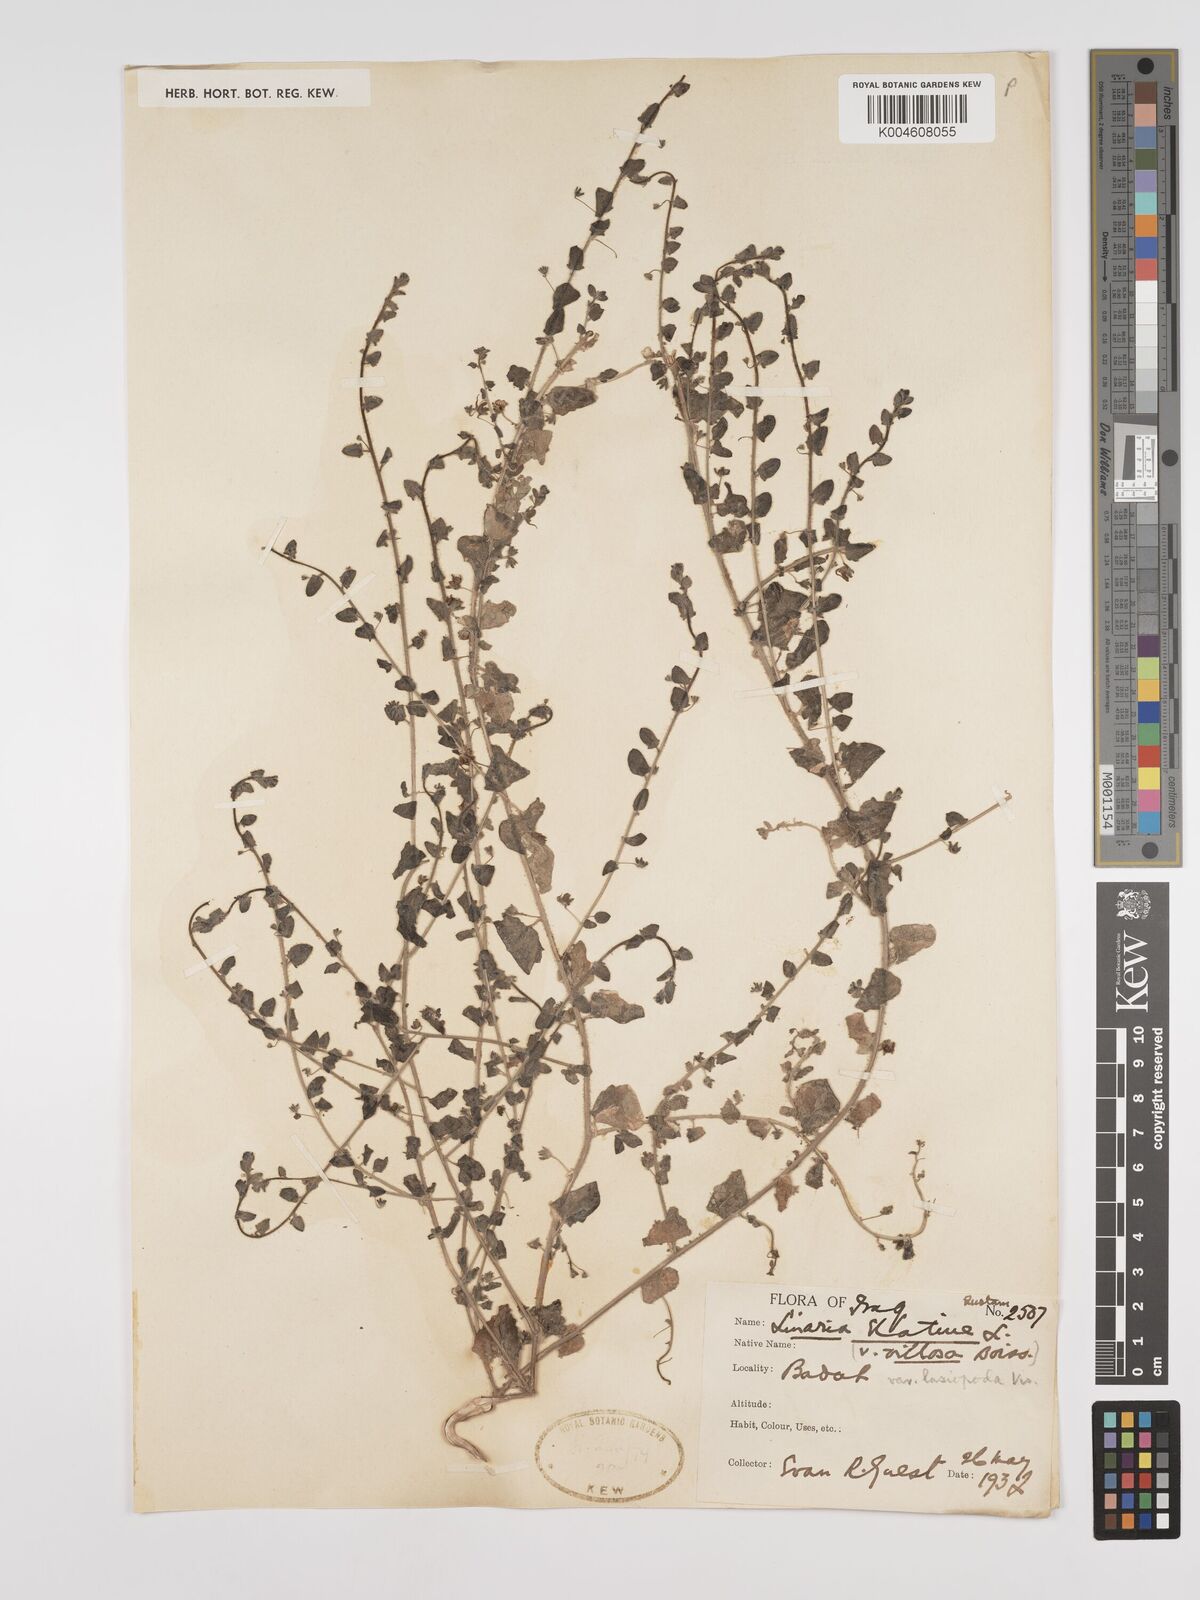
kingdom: Plantae
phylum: Tracheophyta
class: Magnoliopsida
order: Lamiales
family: Plantaginaceae
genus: Kickxia
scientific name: Kickxia elatine
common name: Sharp-leaved fluellen
